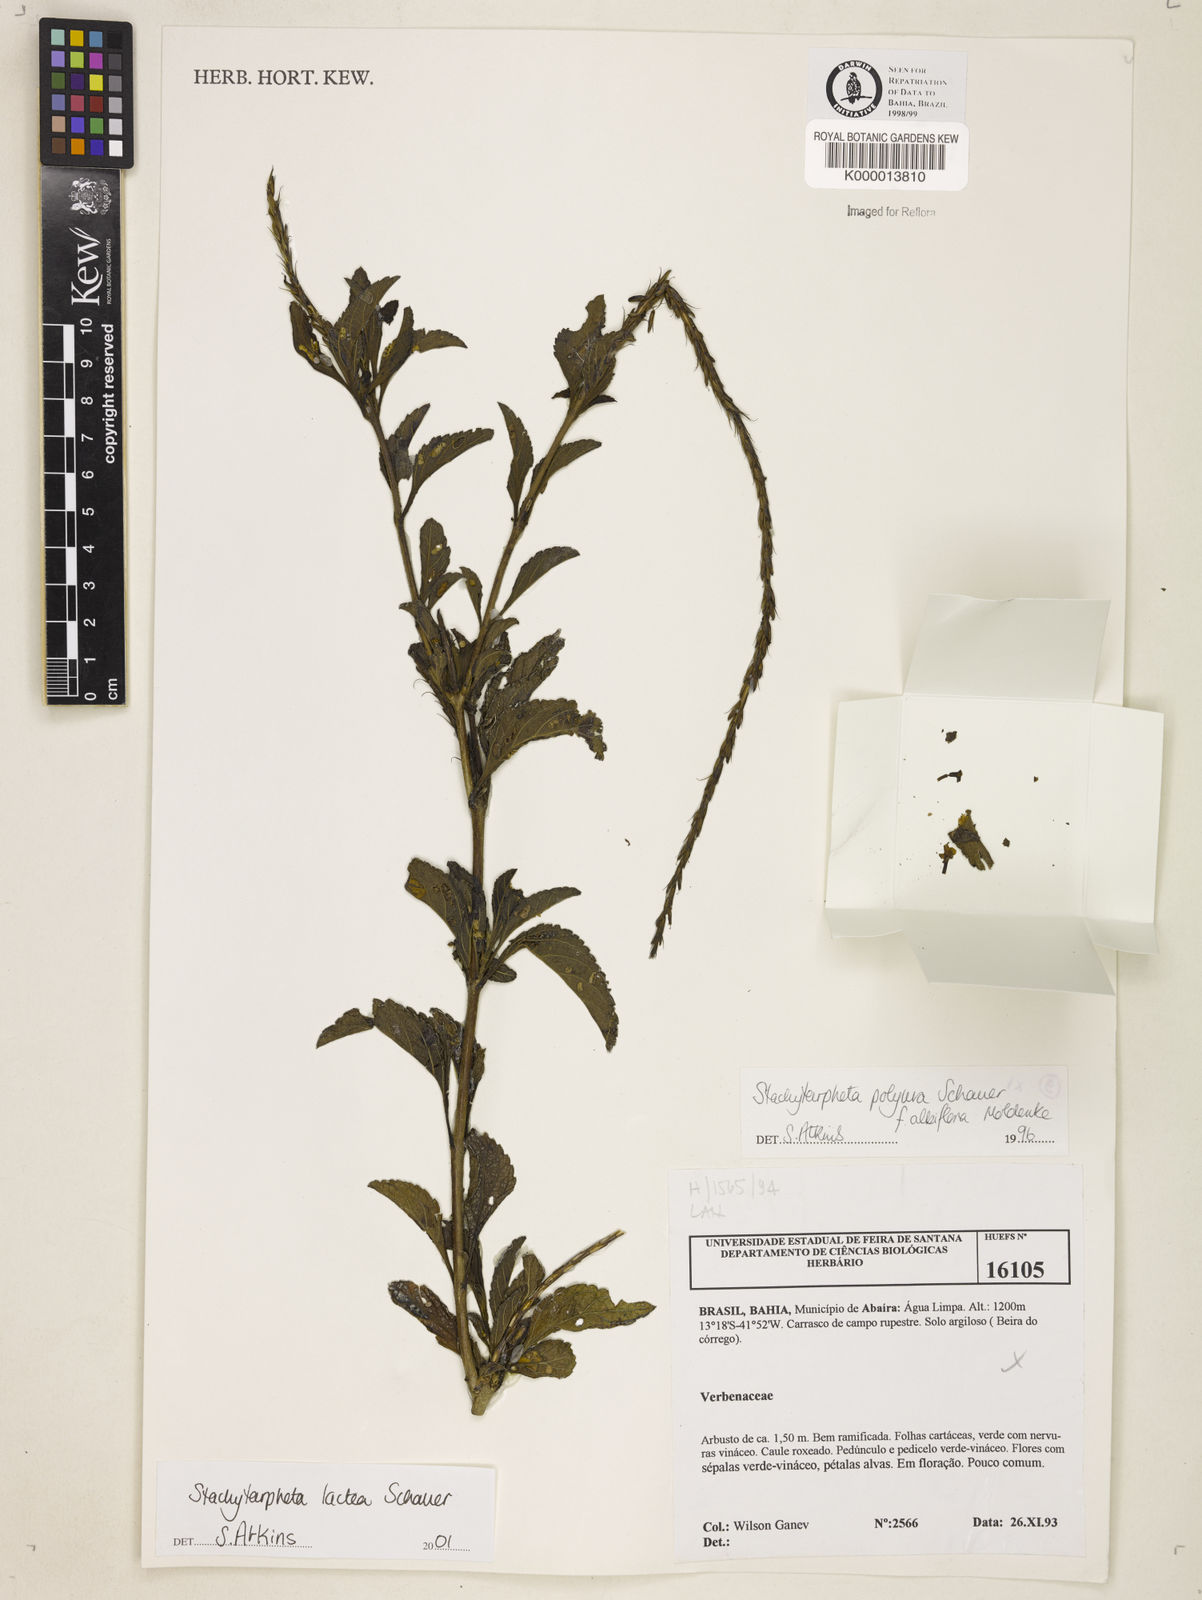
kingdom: Plantae
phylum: Tracheophyta
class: Magnoliopsida
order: Lamiales
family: Verbenaceae
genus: Stachytarpheta
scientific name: Stachytarpheta polyura
